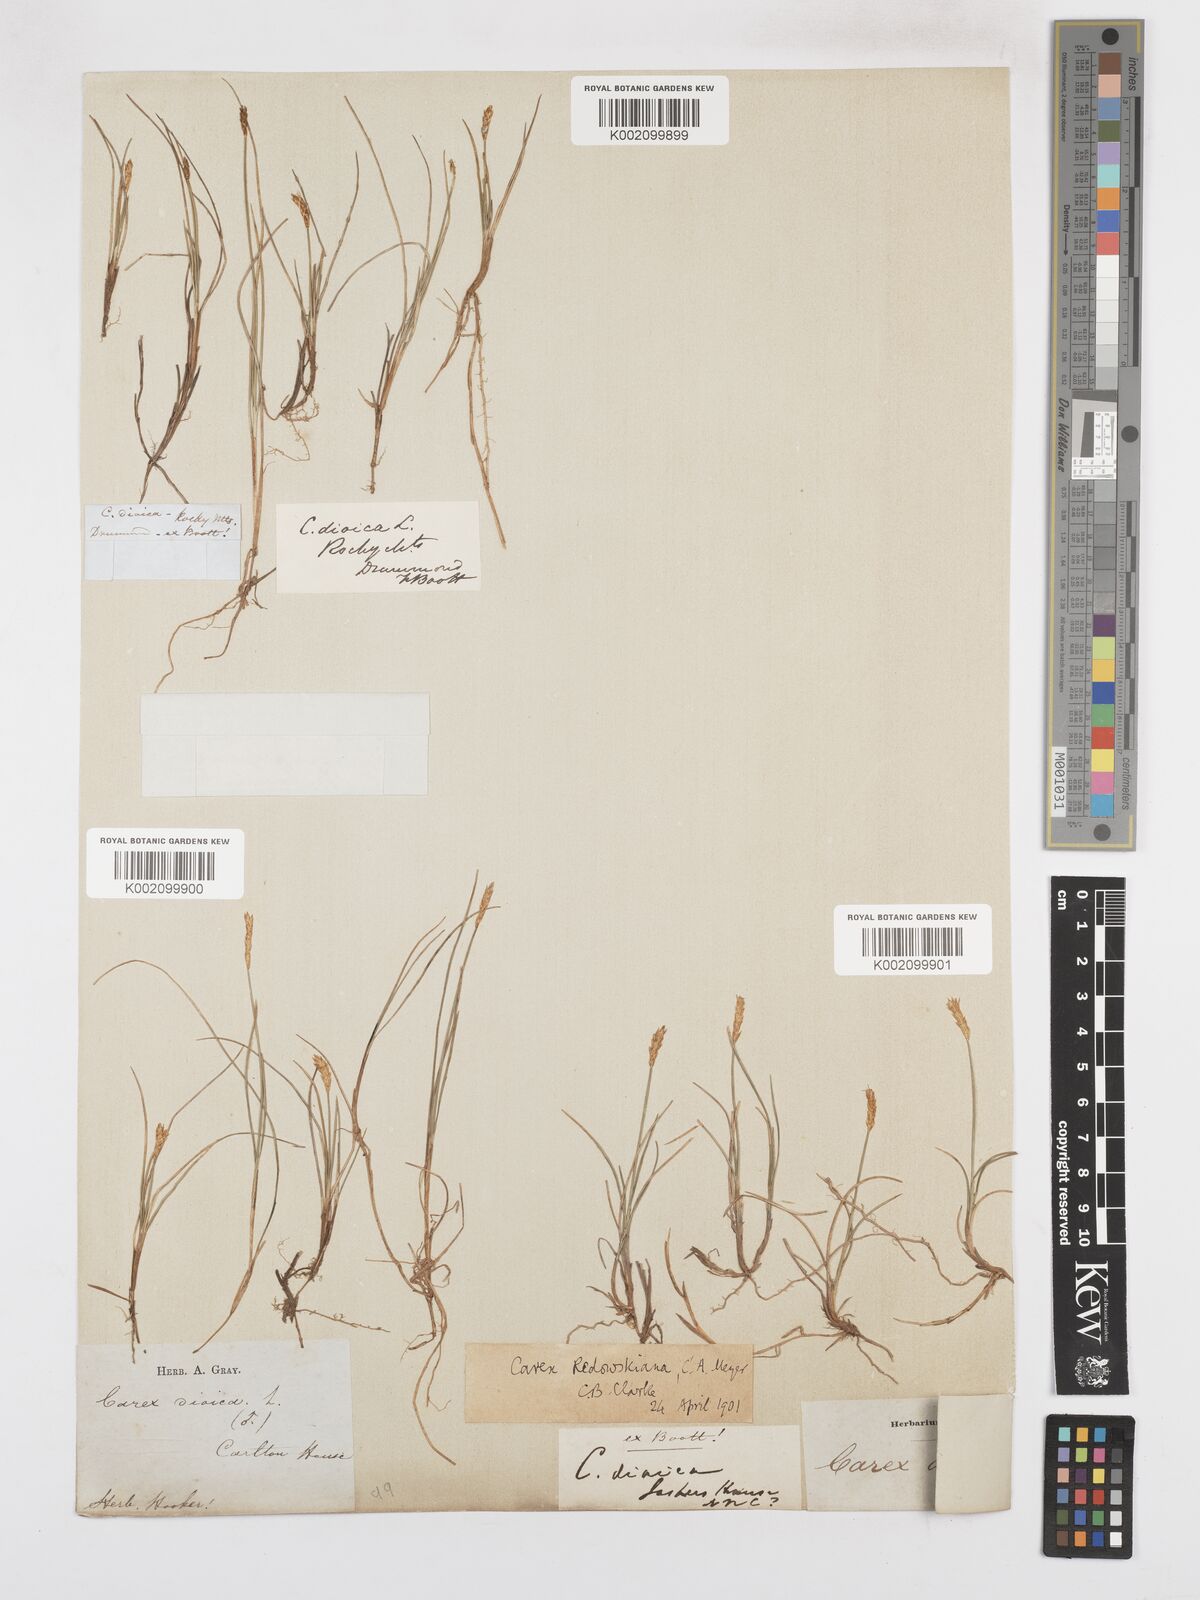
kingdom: Plantae
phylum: Tracheophyta
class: Liliopsida
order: Poales
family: Cyperaceae
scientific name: Cyperaceae
